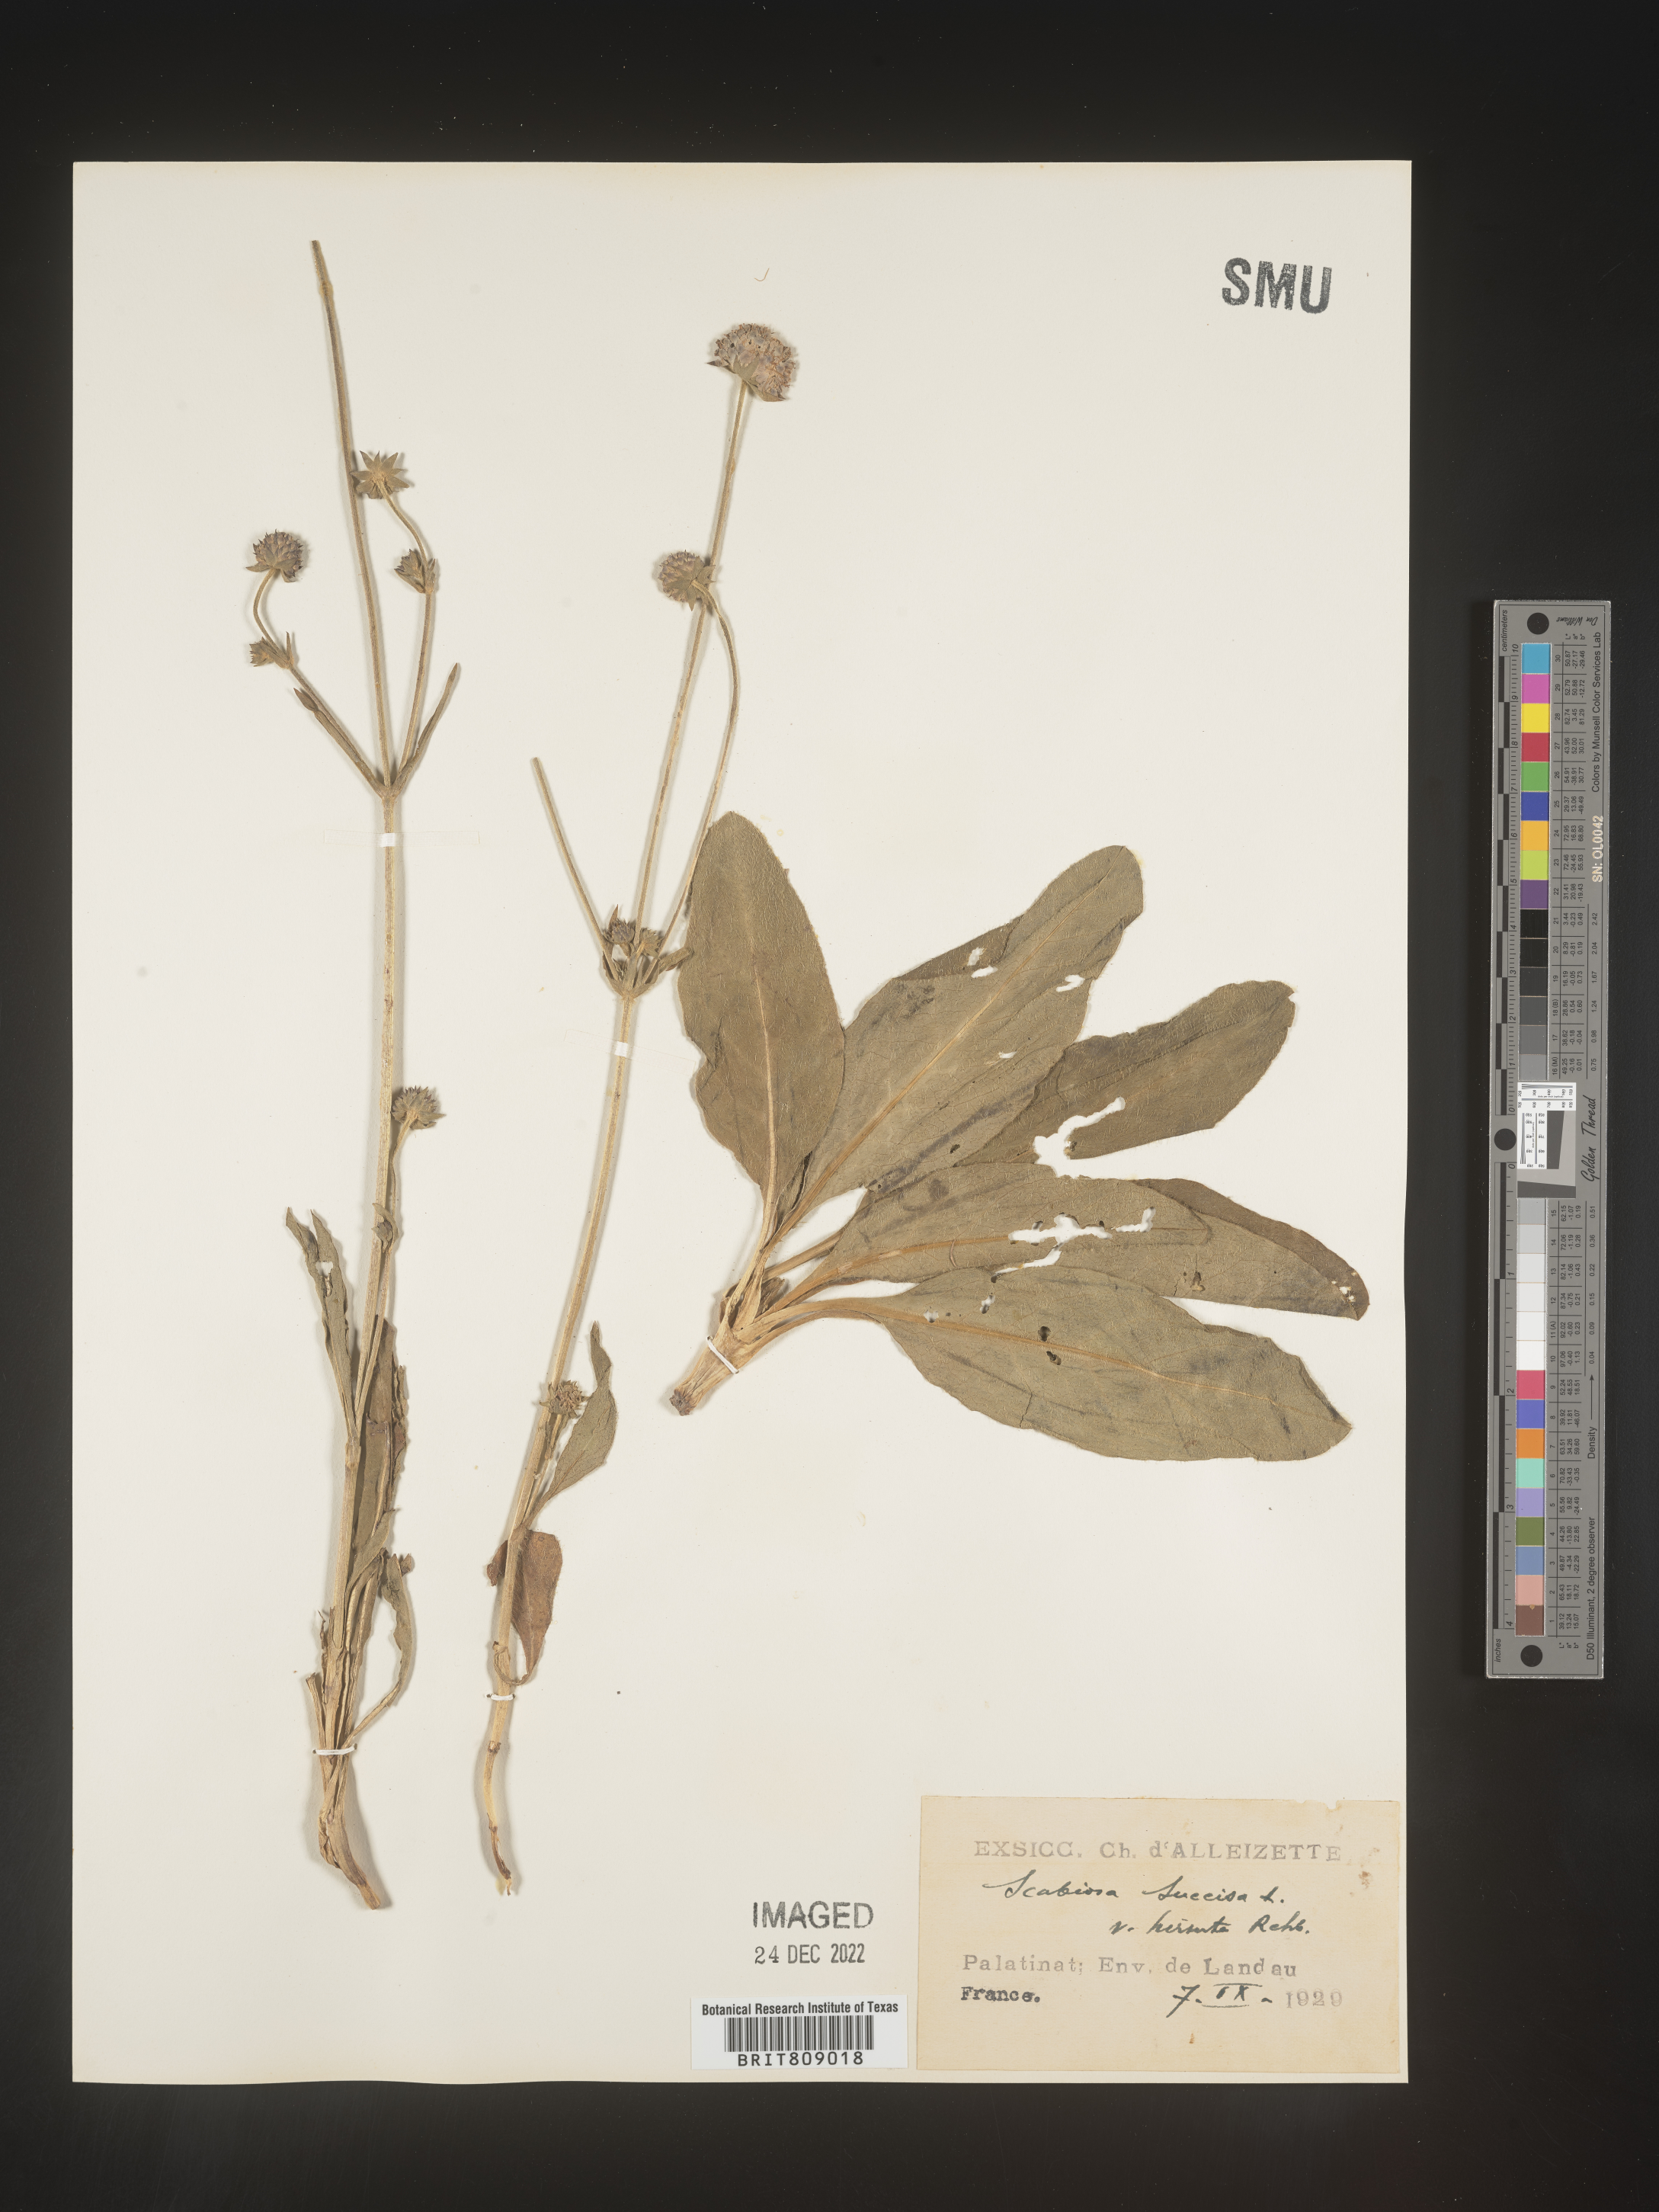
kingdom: Plantae
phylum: Tracheophyta
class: Magnoliopsida
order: Dipsacales
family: Caprifoliaceae
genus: Succisa
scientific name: Succisa
